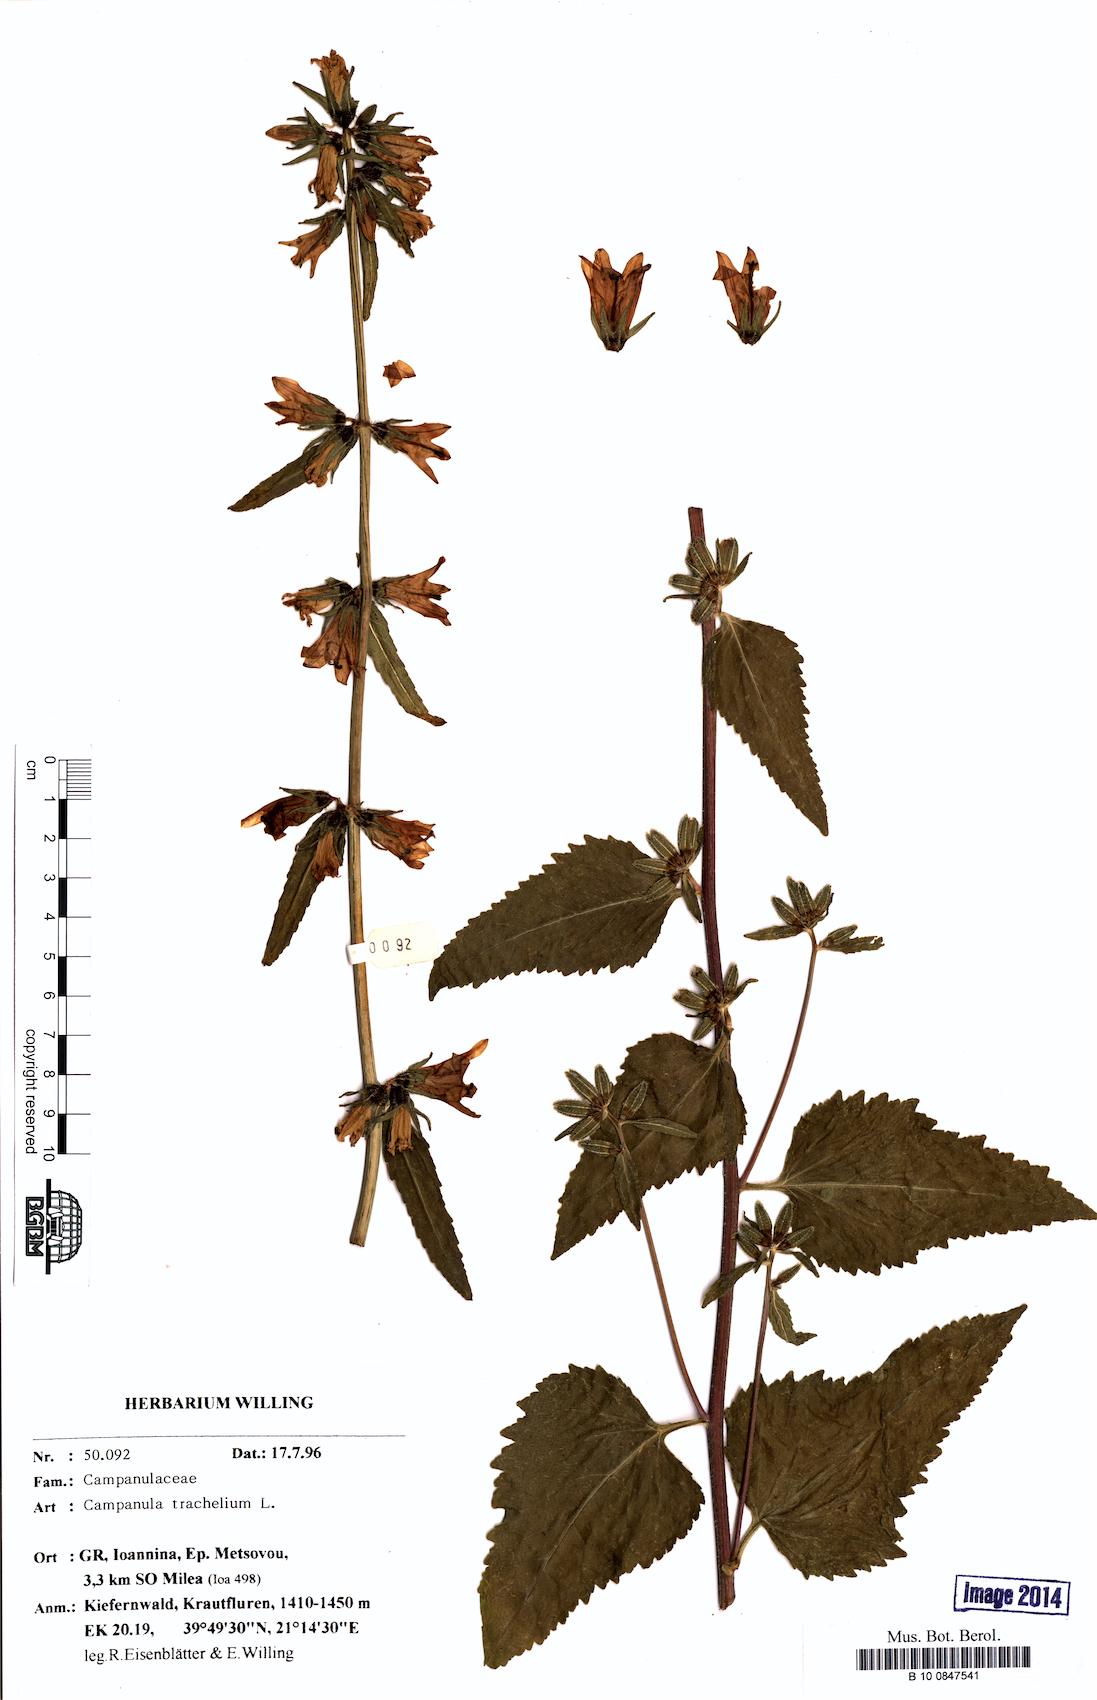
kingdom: Plantae
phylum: Tracheophyta
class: Magnoliopsida
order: Asterales
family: Campanulaceae
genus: Campanula
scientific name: Campanula trachelium
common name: Nettle-leaved bellflower
